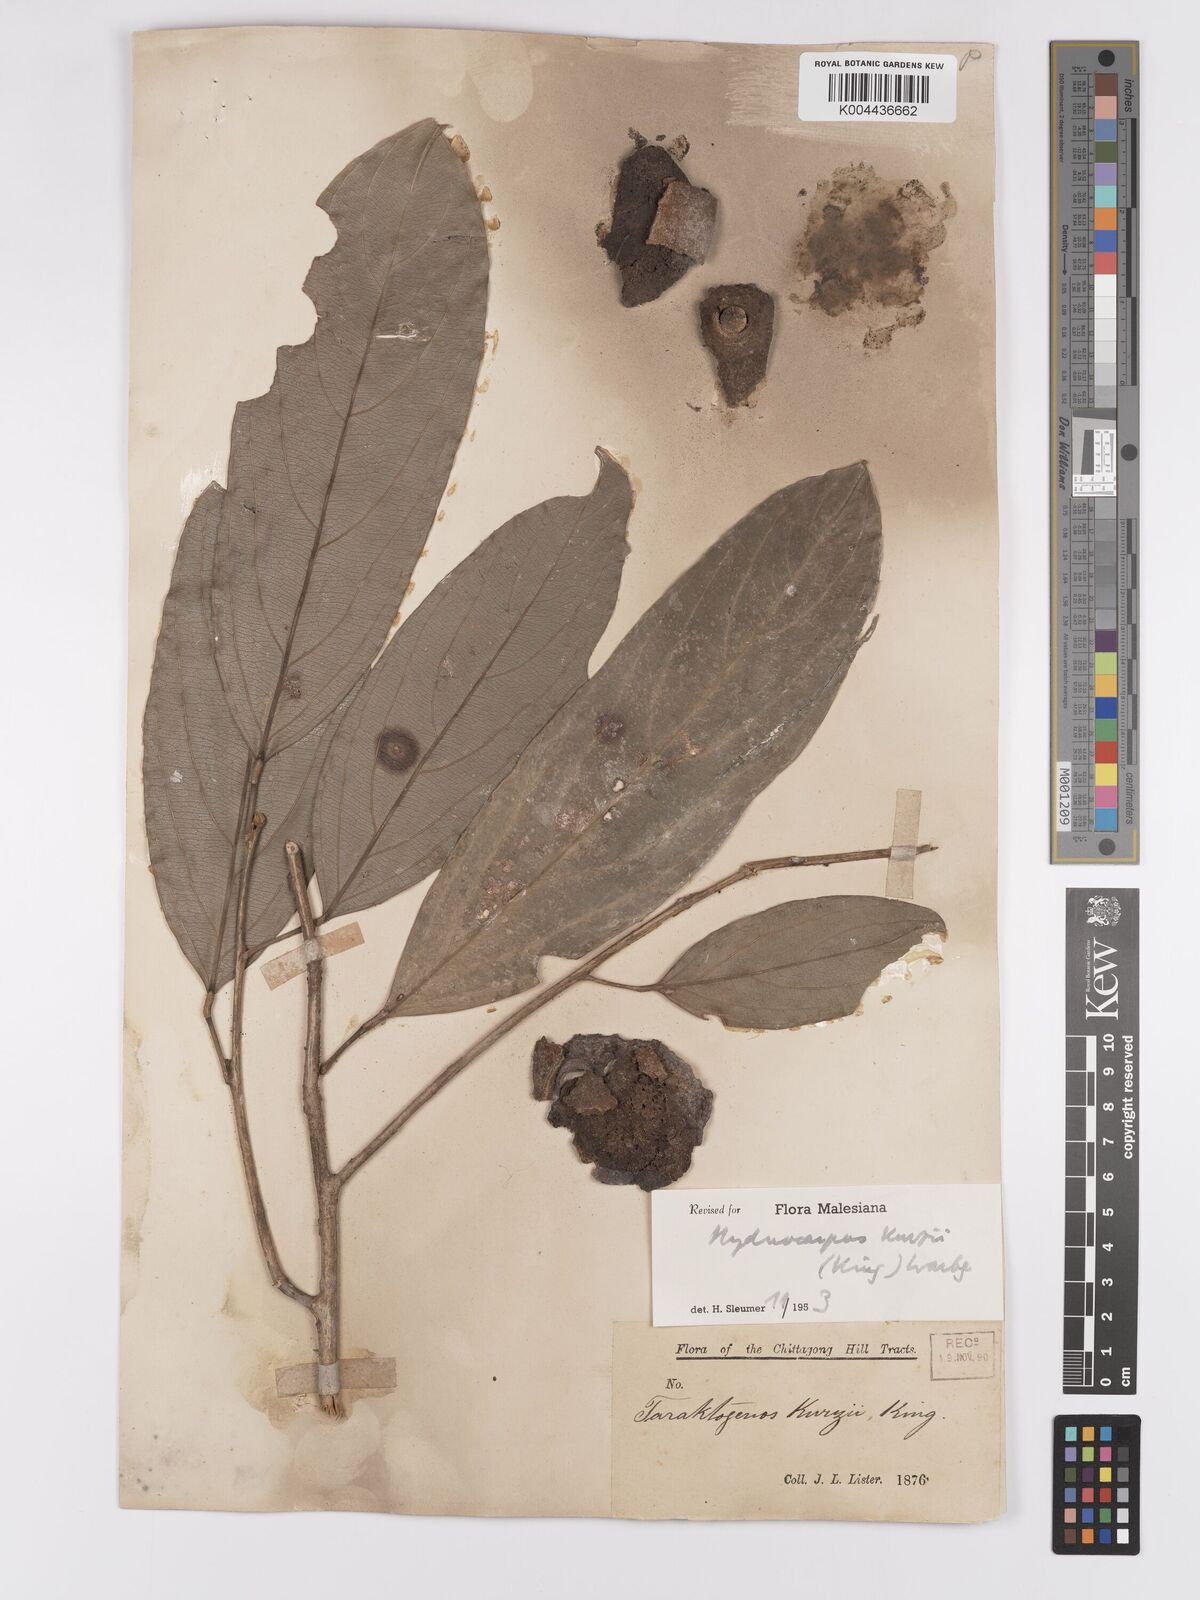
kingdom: Plantae
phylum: Tracheophyta
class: Magnoliopsida
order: Malpighiales
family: Achariaceae
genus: Hydnocarpus
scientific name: Hydnocarpus kurzii
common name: Chaulmoogra
